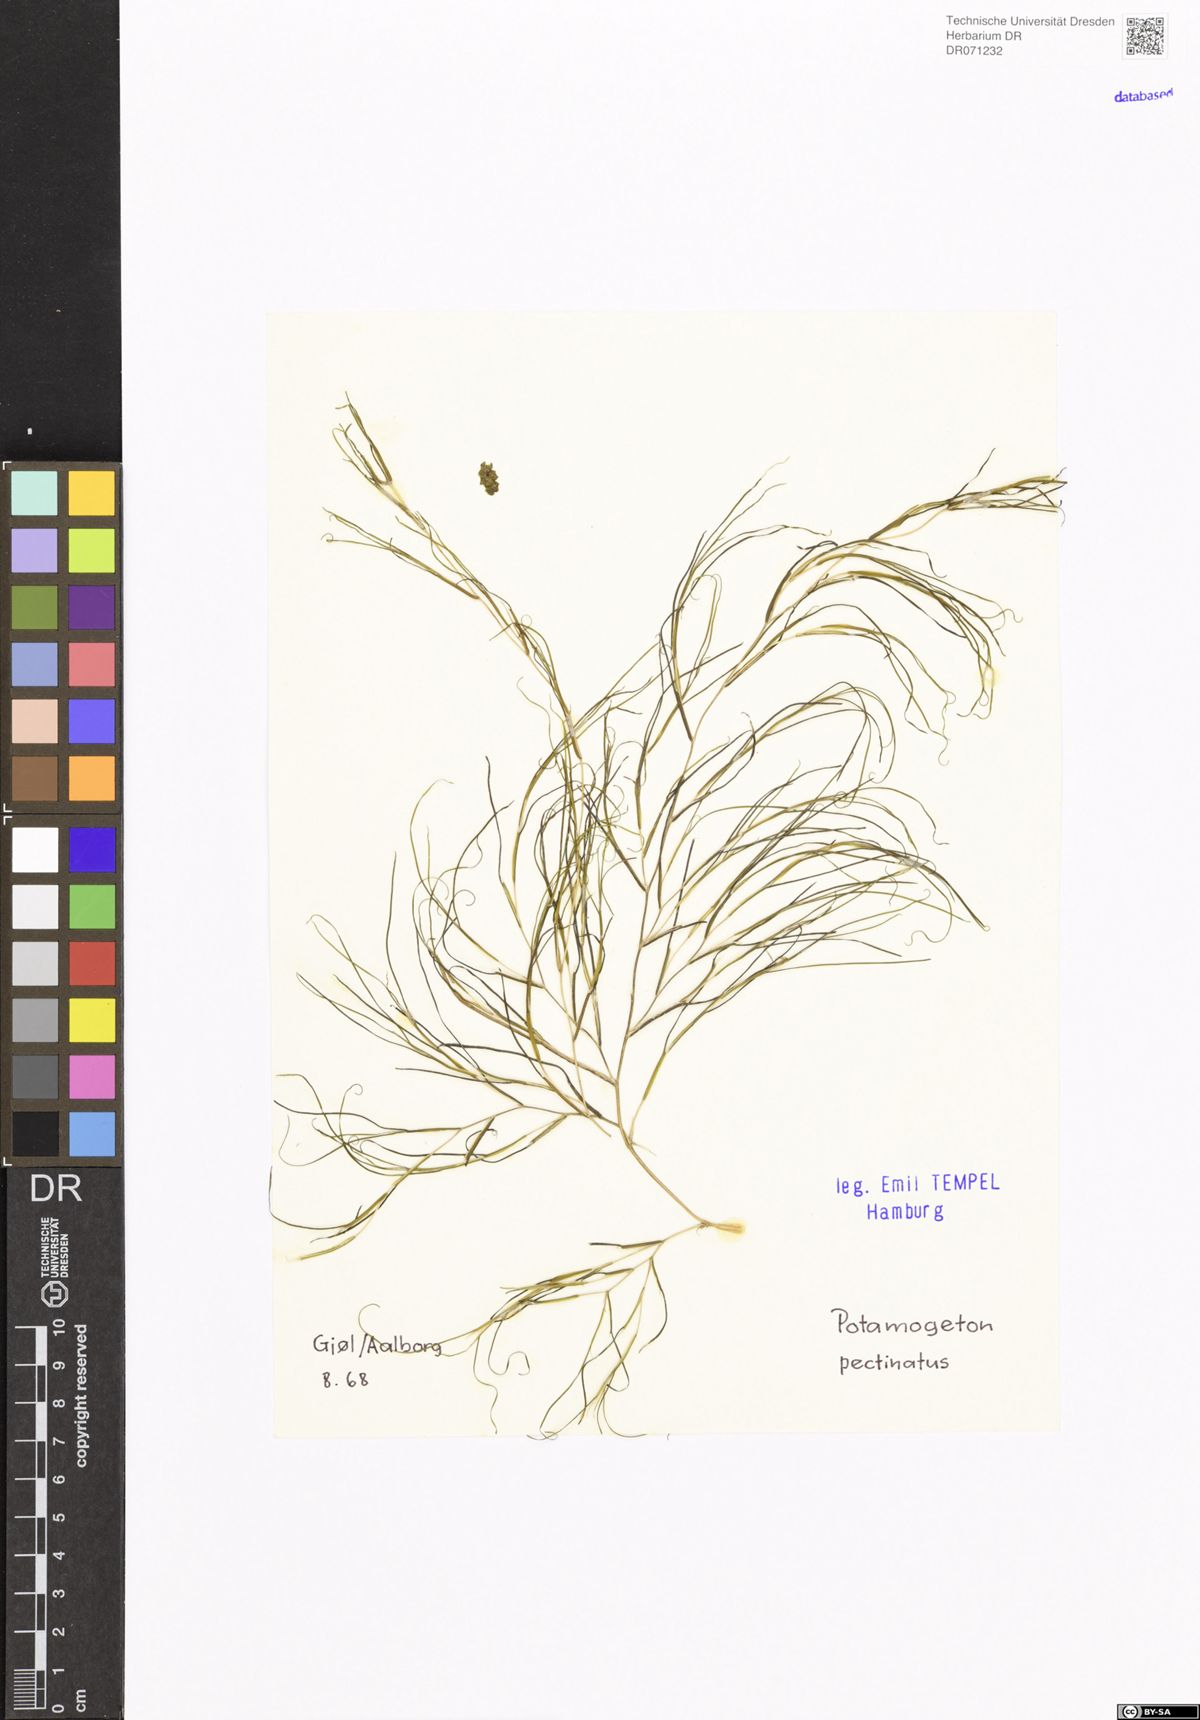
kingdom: Plantae
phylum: Tracheophyta
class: Liliopsida
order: Alismatales
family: Potamogetonaceae
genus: Stuckenia
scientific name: Stuckenia pectinata
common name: Sago pondweed
